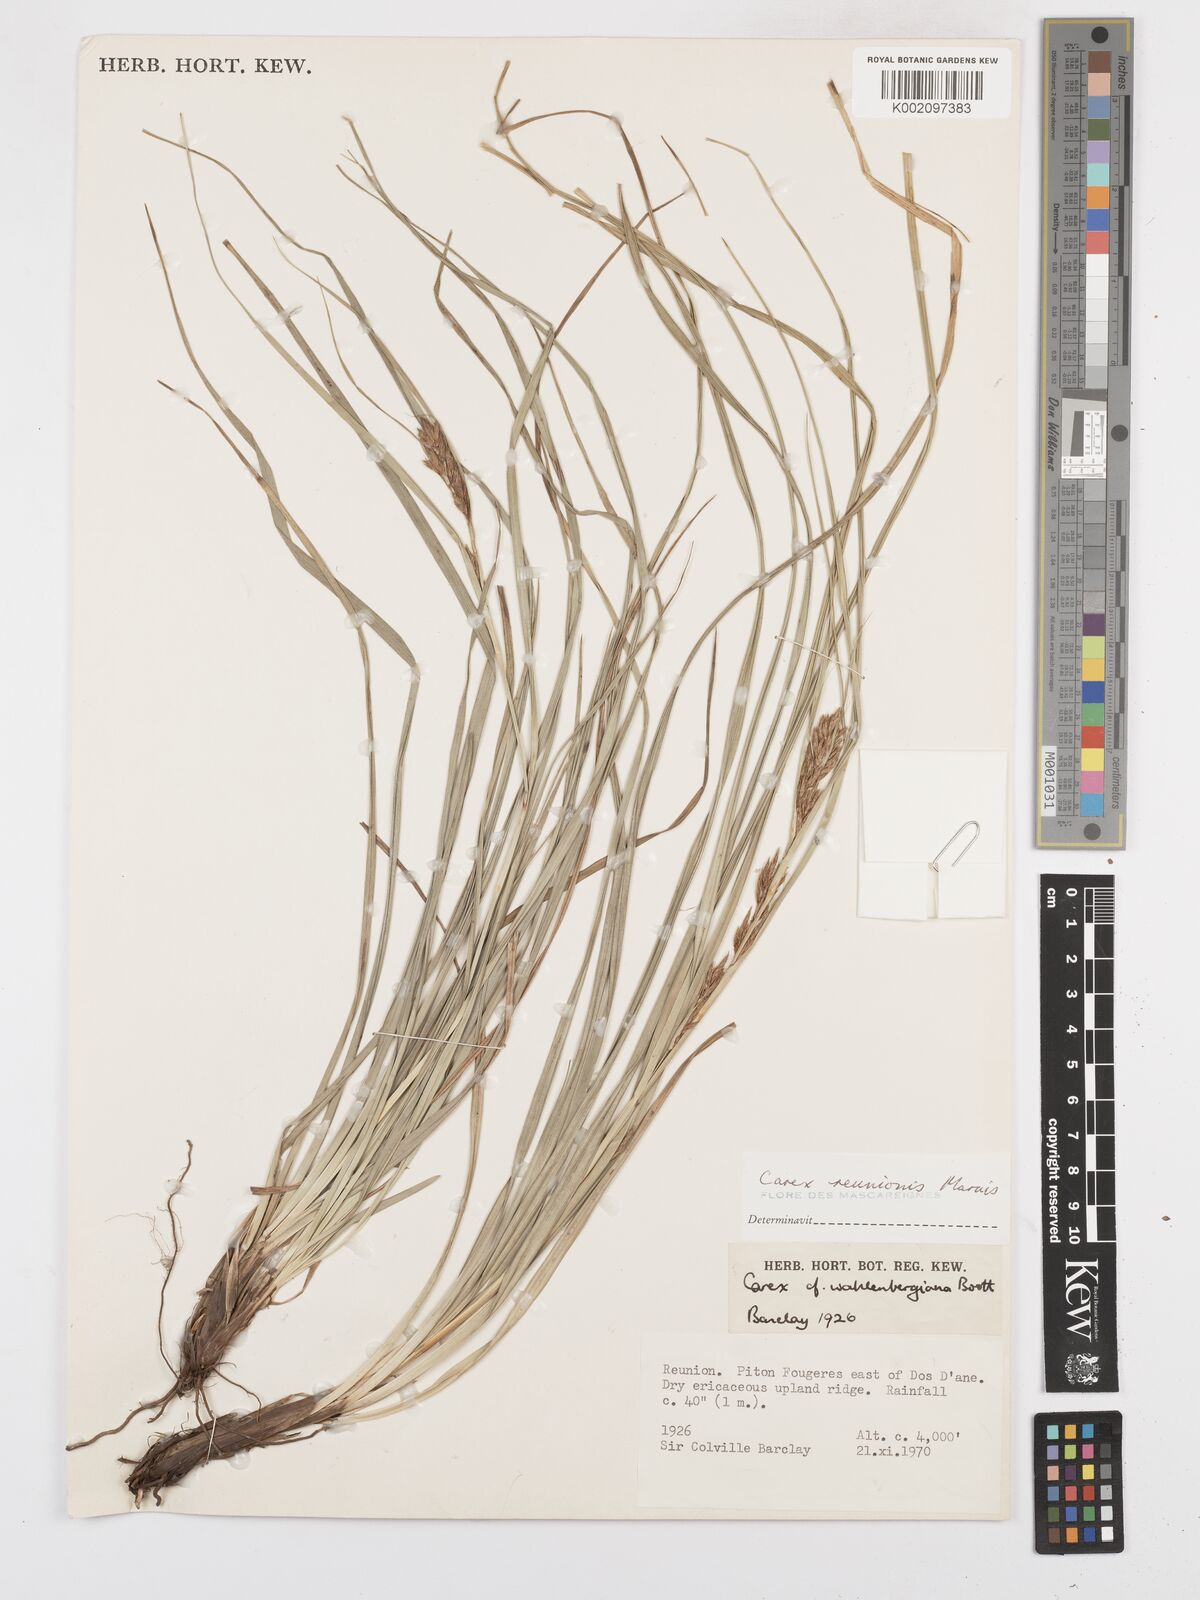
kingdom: Plantae
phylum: Tracheophyta
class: Liliopsida
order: Poales
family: Cyperaceae
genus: Carex
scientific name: Carex
